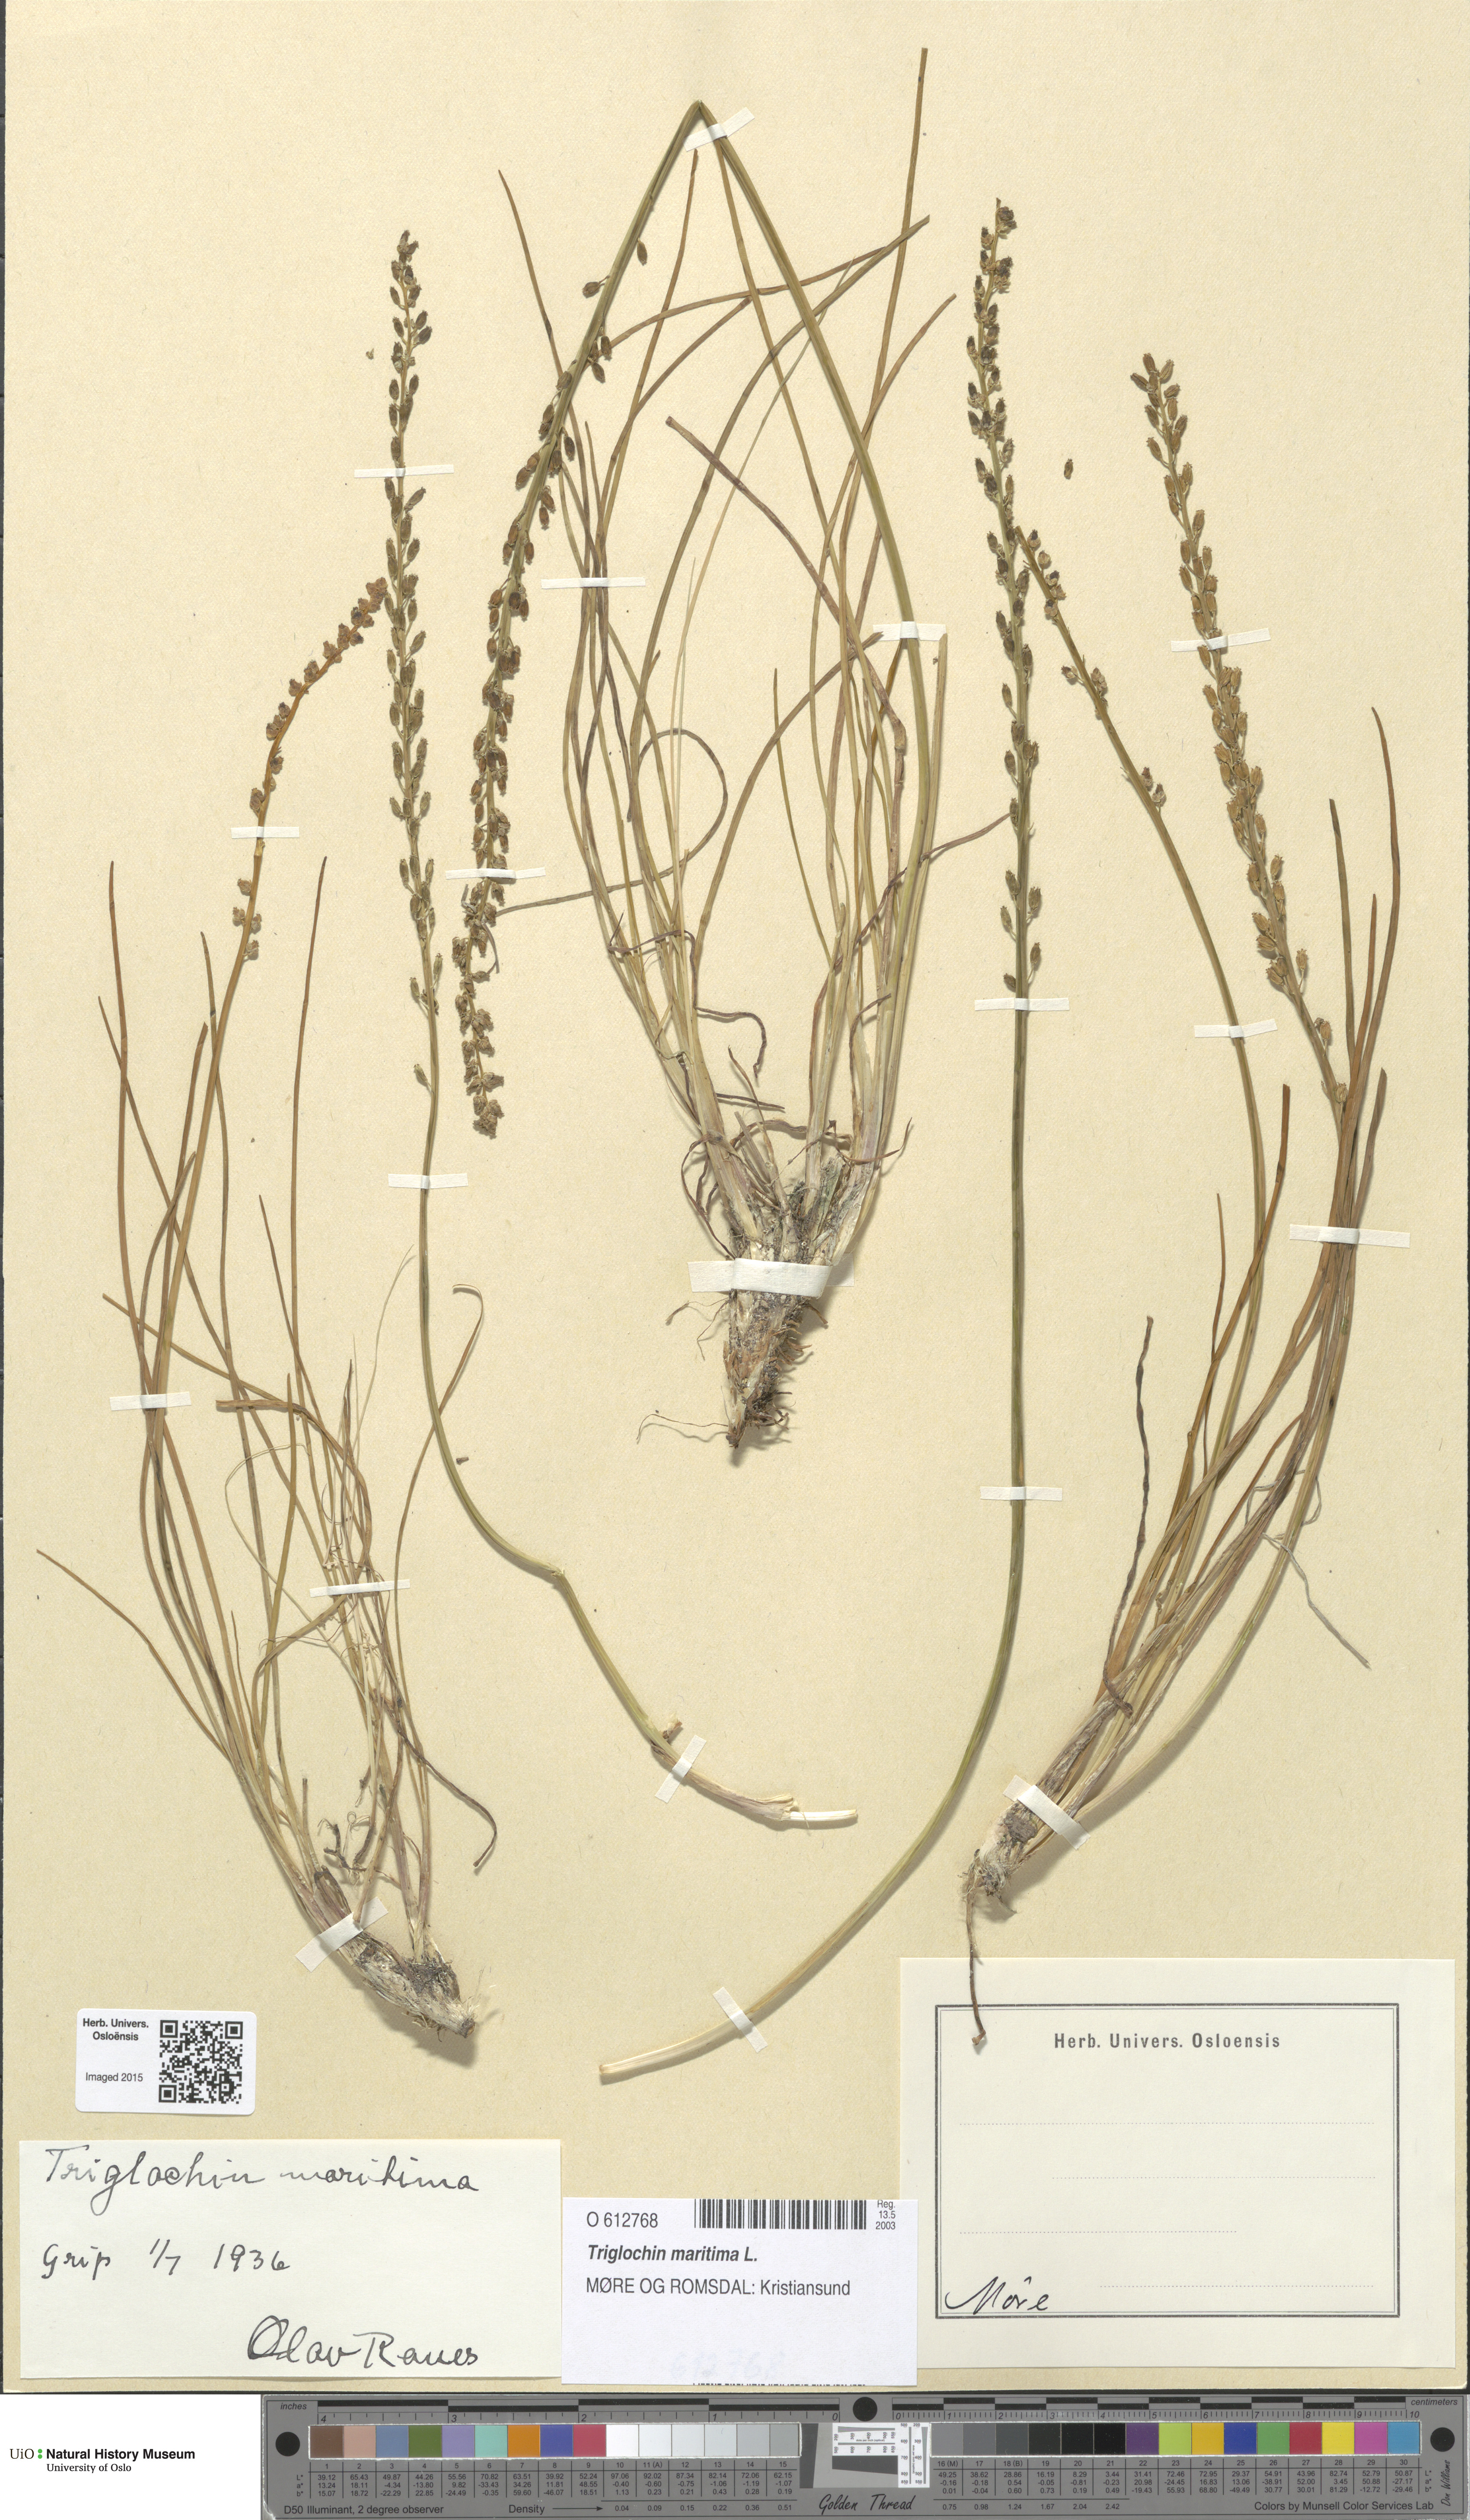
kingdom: Plantae
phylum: Tracheophyta
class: Liliopsida
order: Alismatales
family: Juncaginaceae
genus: Triglochin
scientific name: Triglochin maritima
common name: Sea arrowgrass
